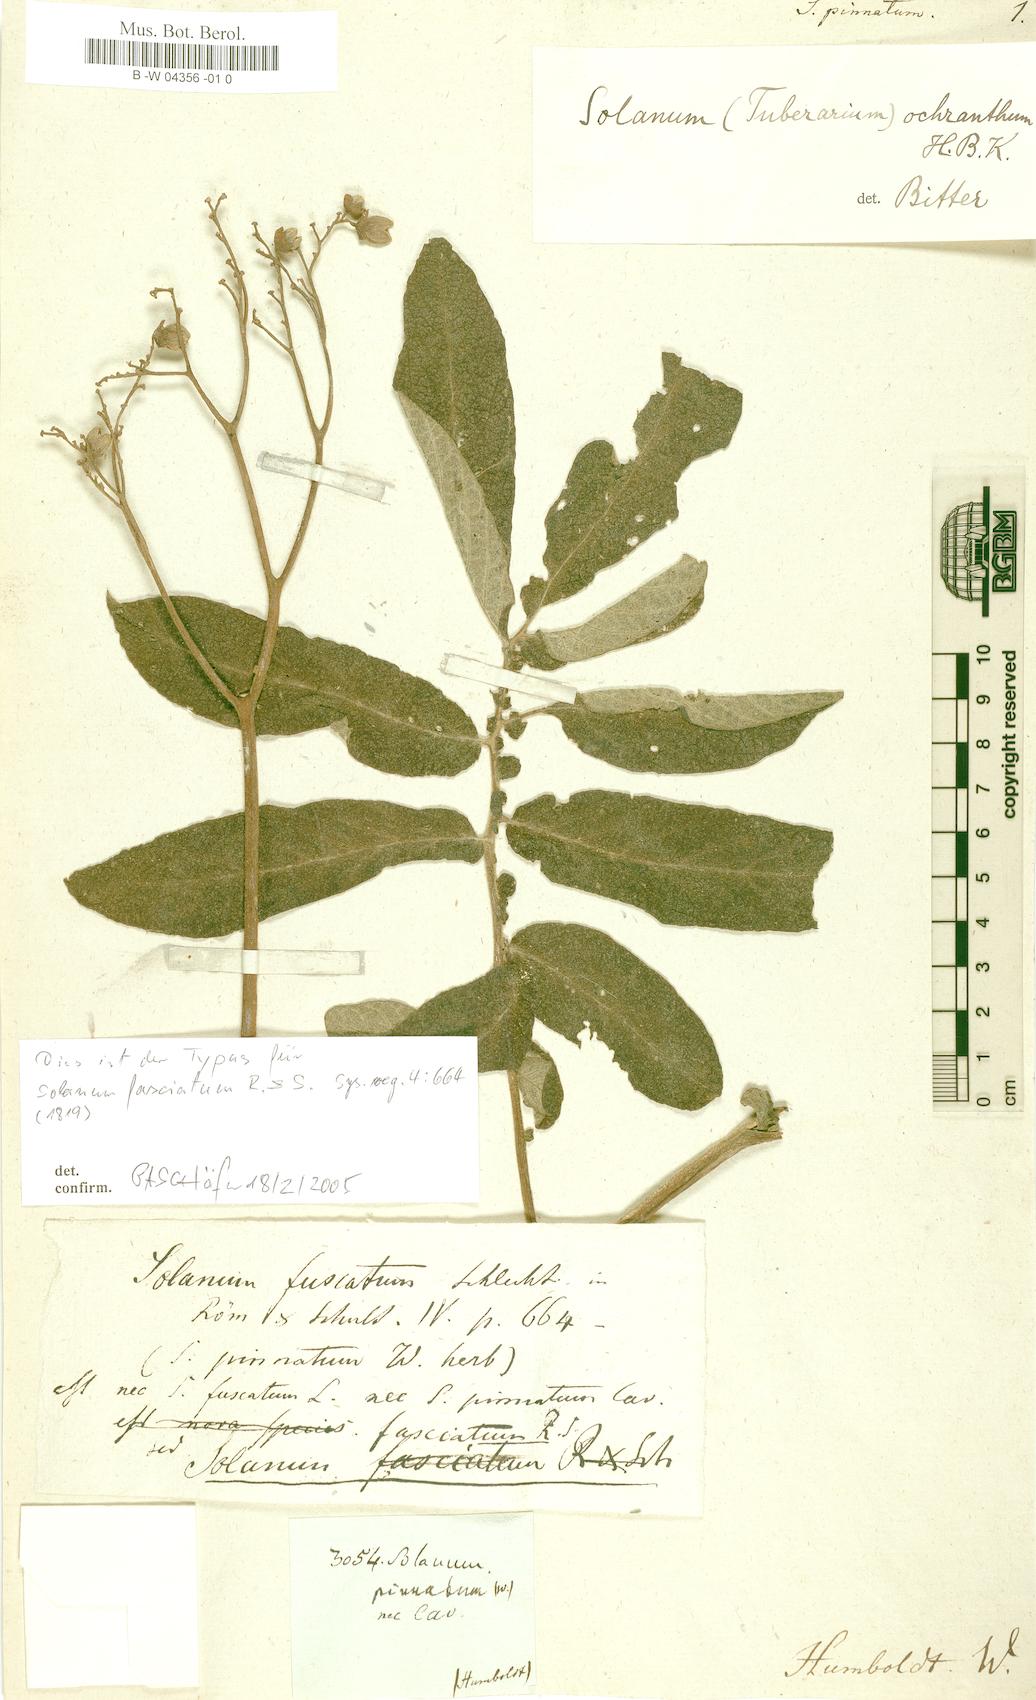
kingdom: Plantae
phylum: Tracheophyta
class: Magnoliopsida
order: Solanales
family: Solanaceae
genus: Solanum
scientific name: Solanum pinnatum
